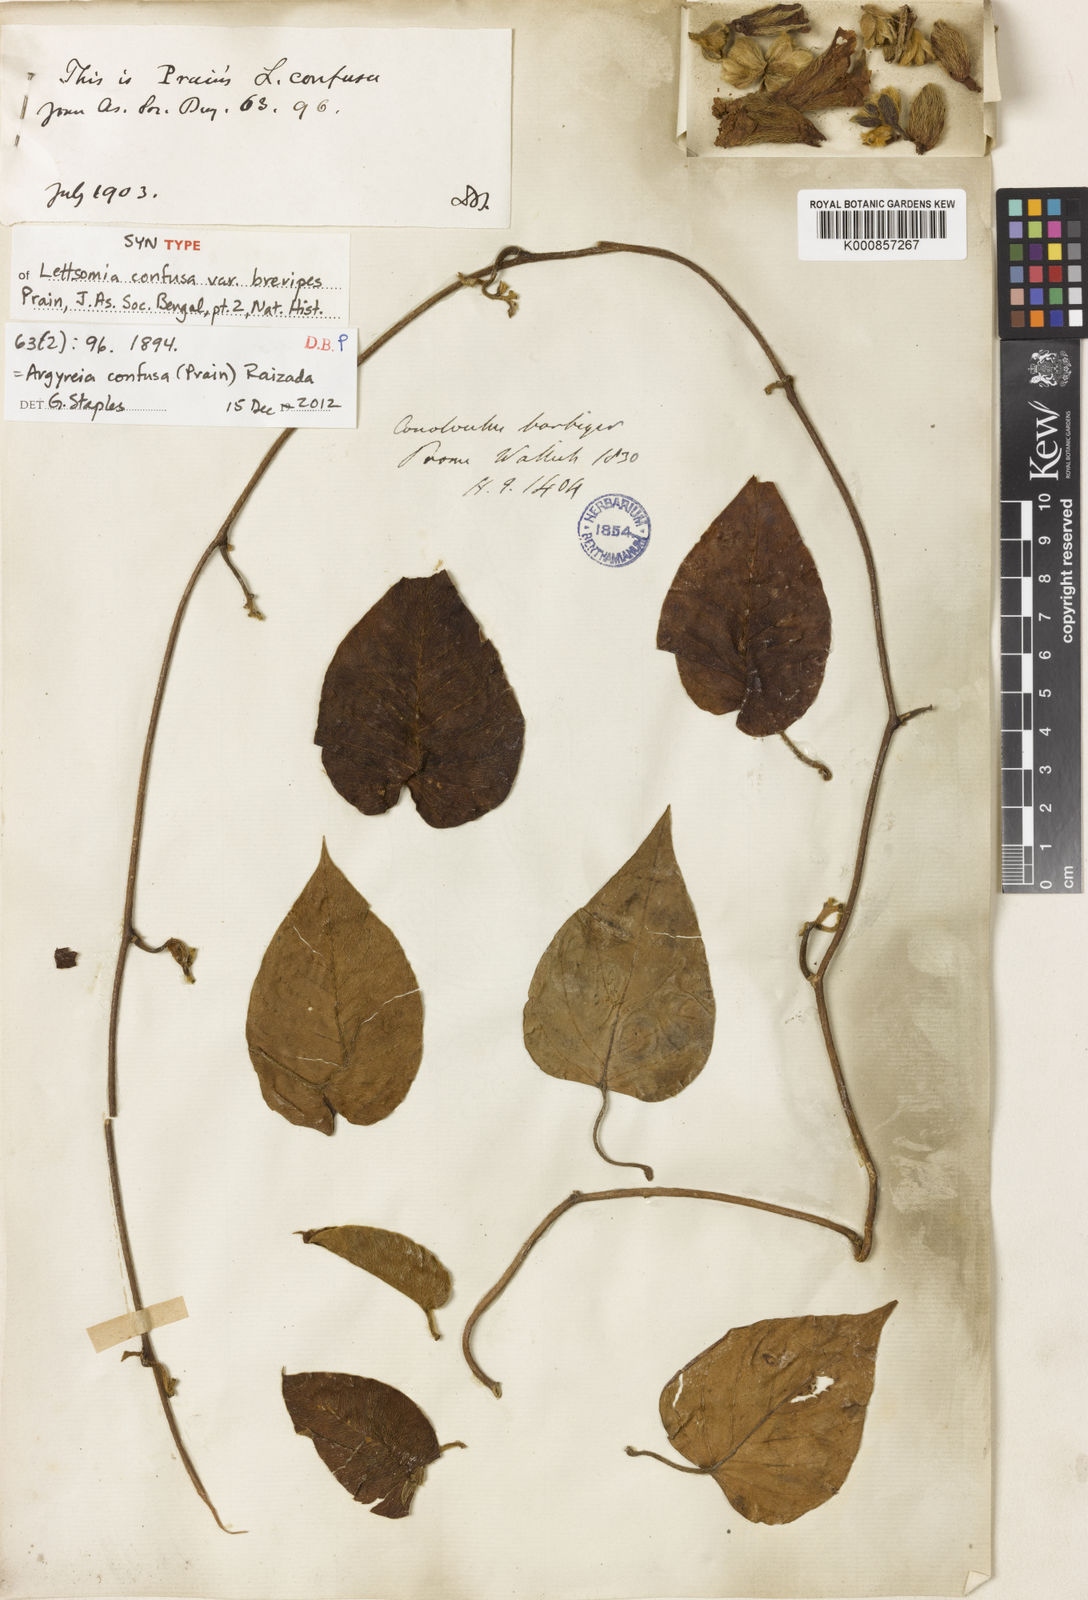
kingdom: Plantae
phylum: Tracheophyta
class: Magnoliopsida
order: Solanales
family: Convolvulaceae
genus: Argyreia
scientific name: Argyreia confusa
